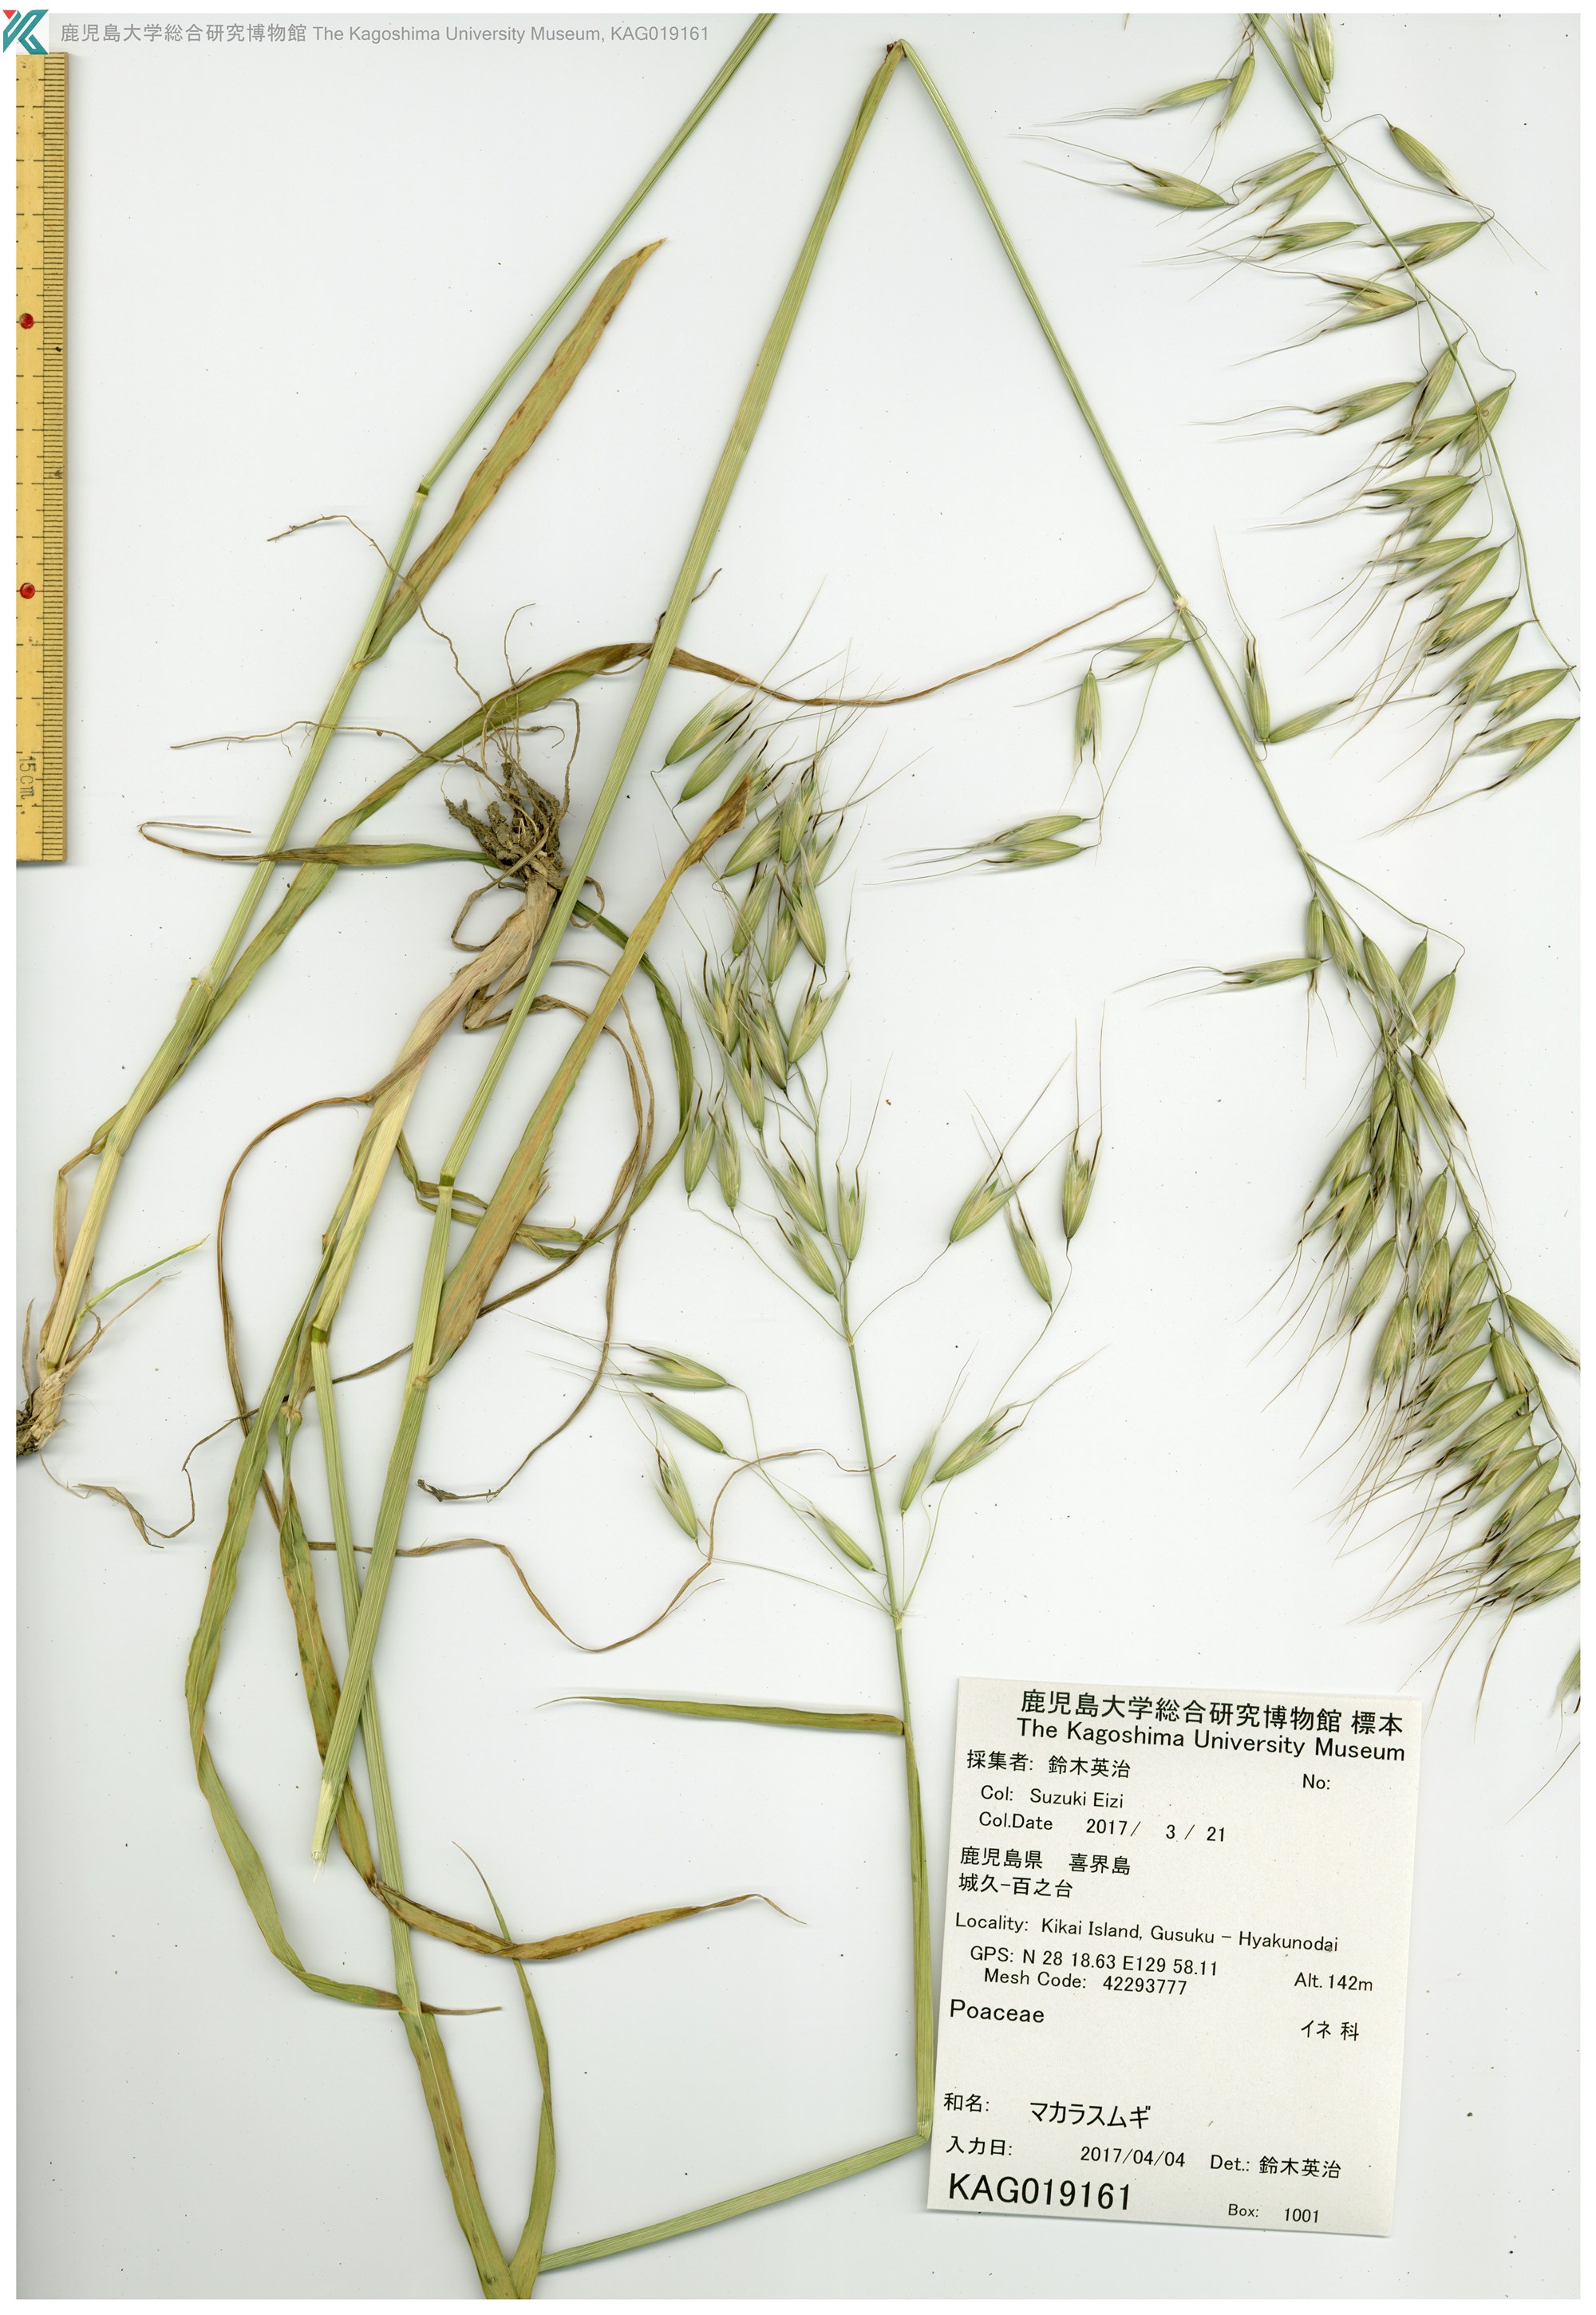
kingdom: Plantae
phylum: Tracheophyta
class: Liliopsida
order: Poales
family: Poaceae
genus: Avena
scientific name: Avena fatua
